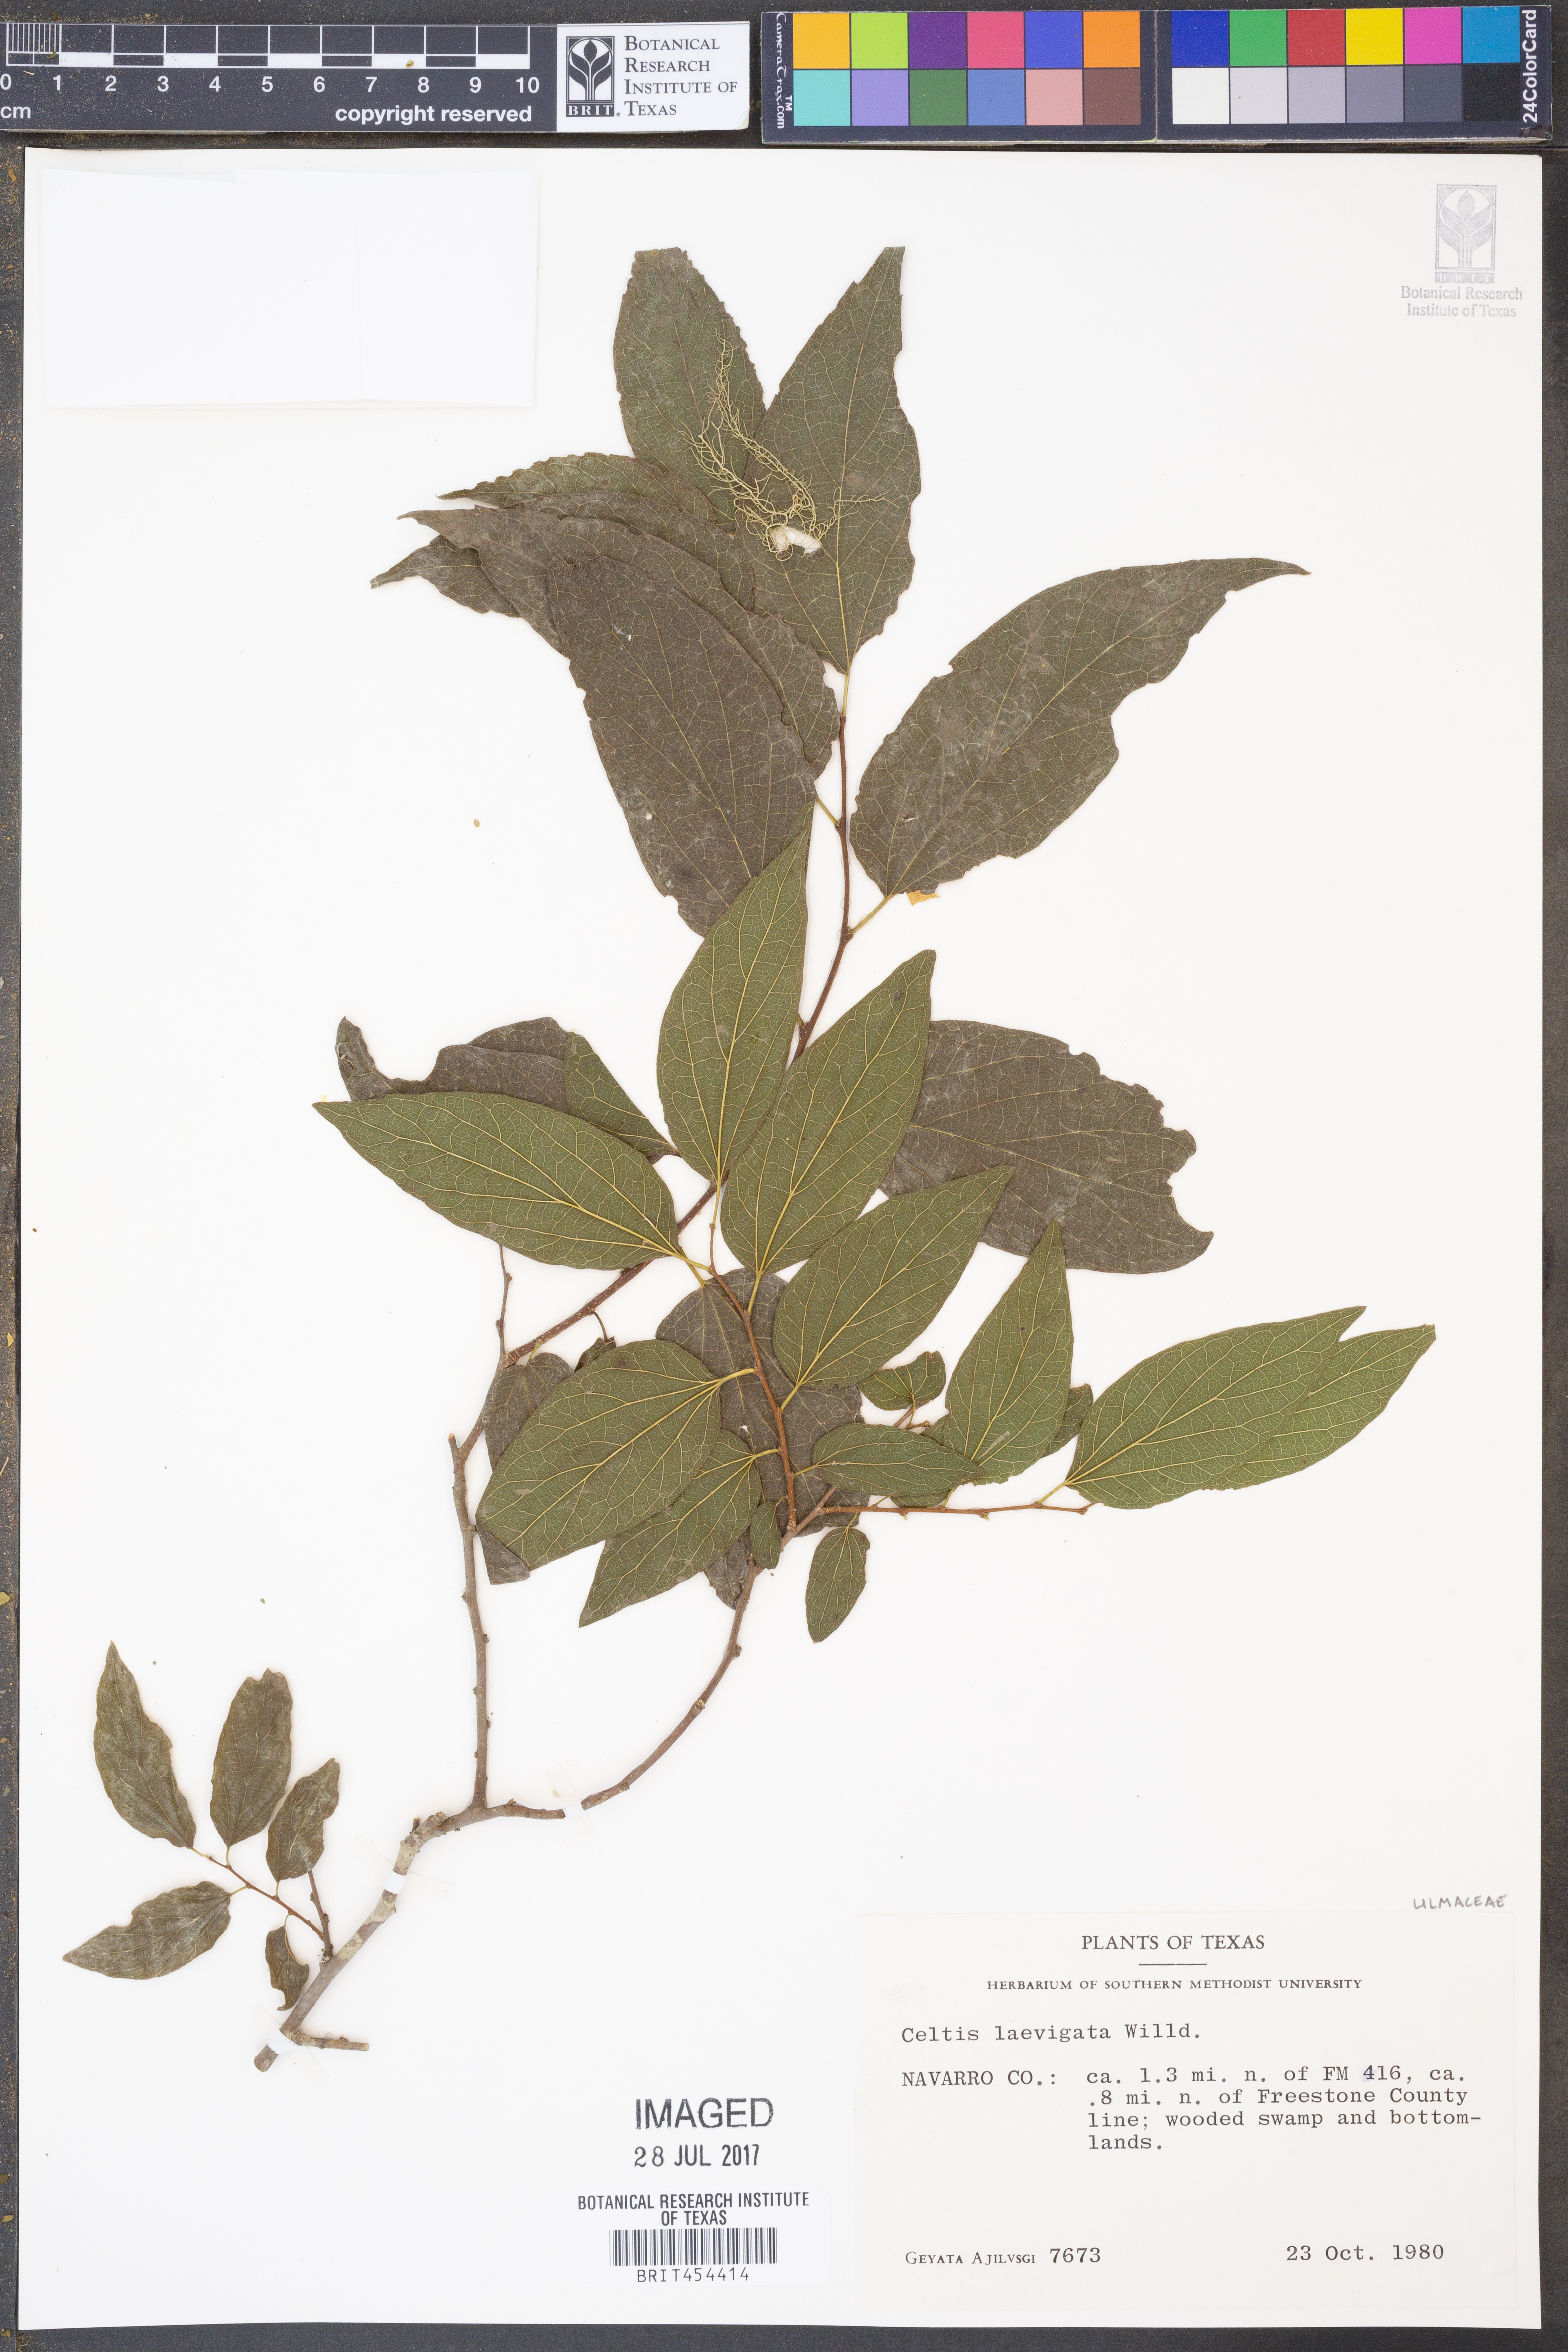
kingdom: Plantae
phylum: Tracheophyta
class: Magnoliopsida
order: Rosales
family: Cannabaceae
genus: Celtis
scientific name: Celtis laevigata
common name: Sugarberry
